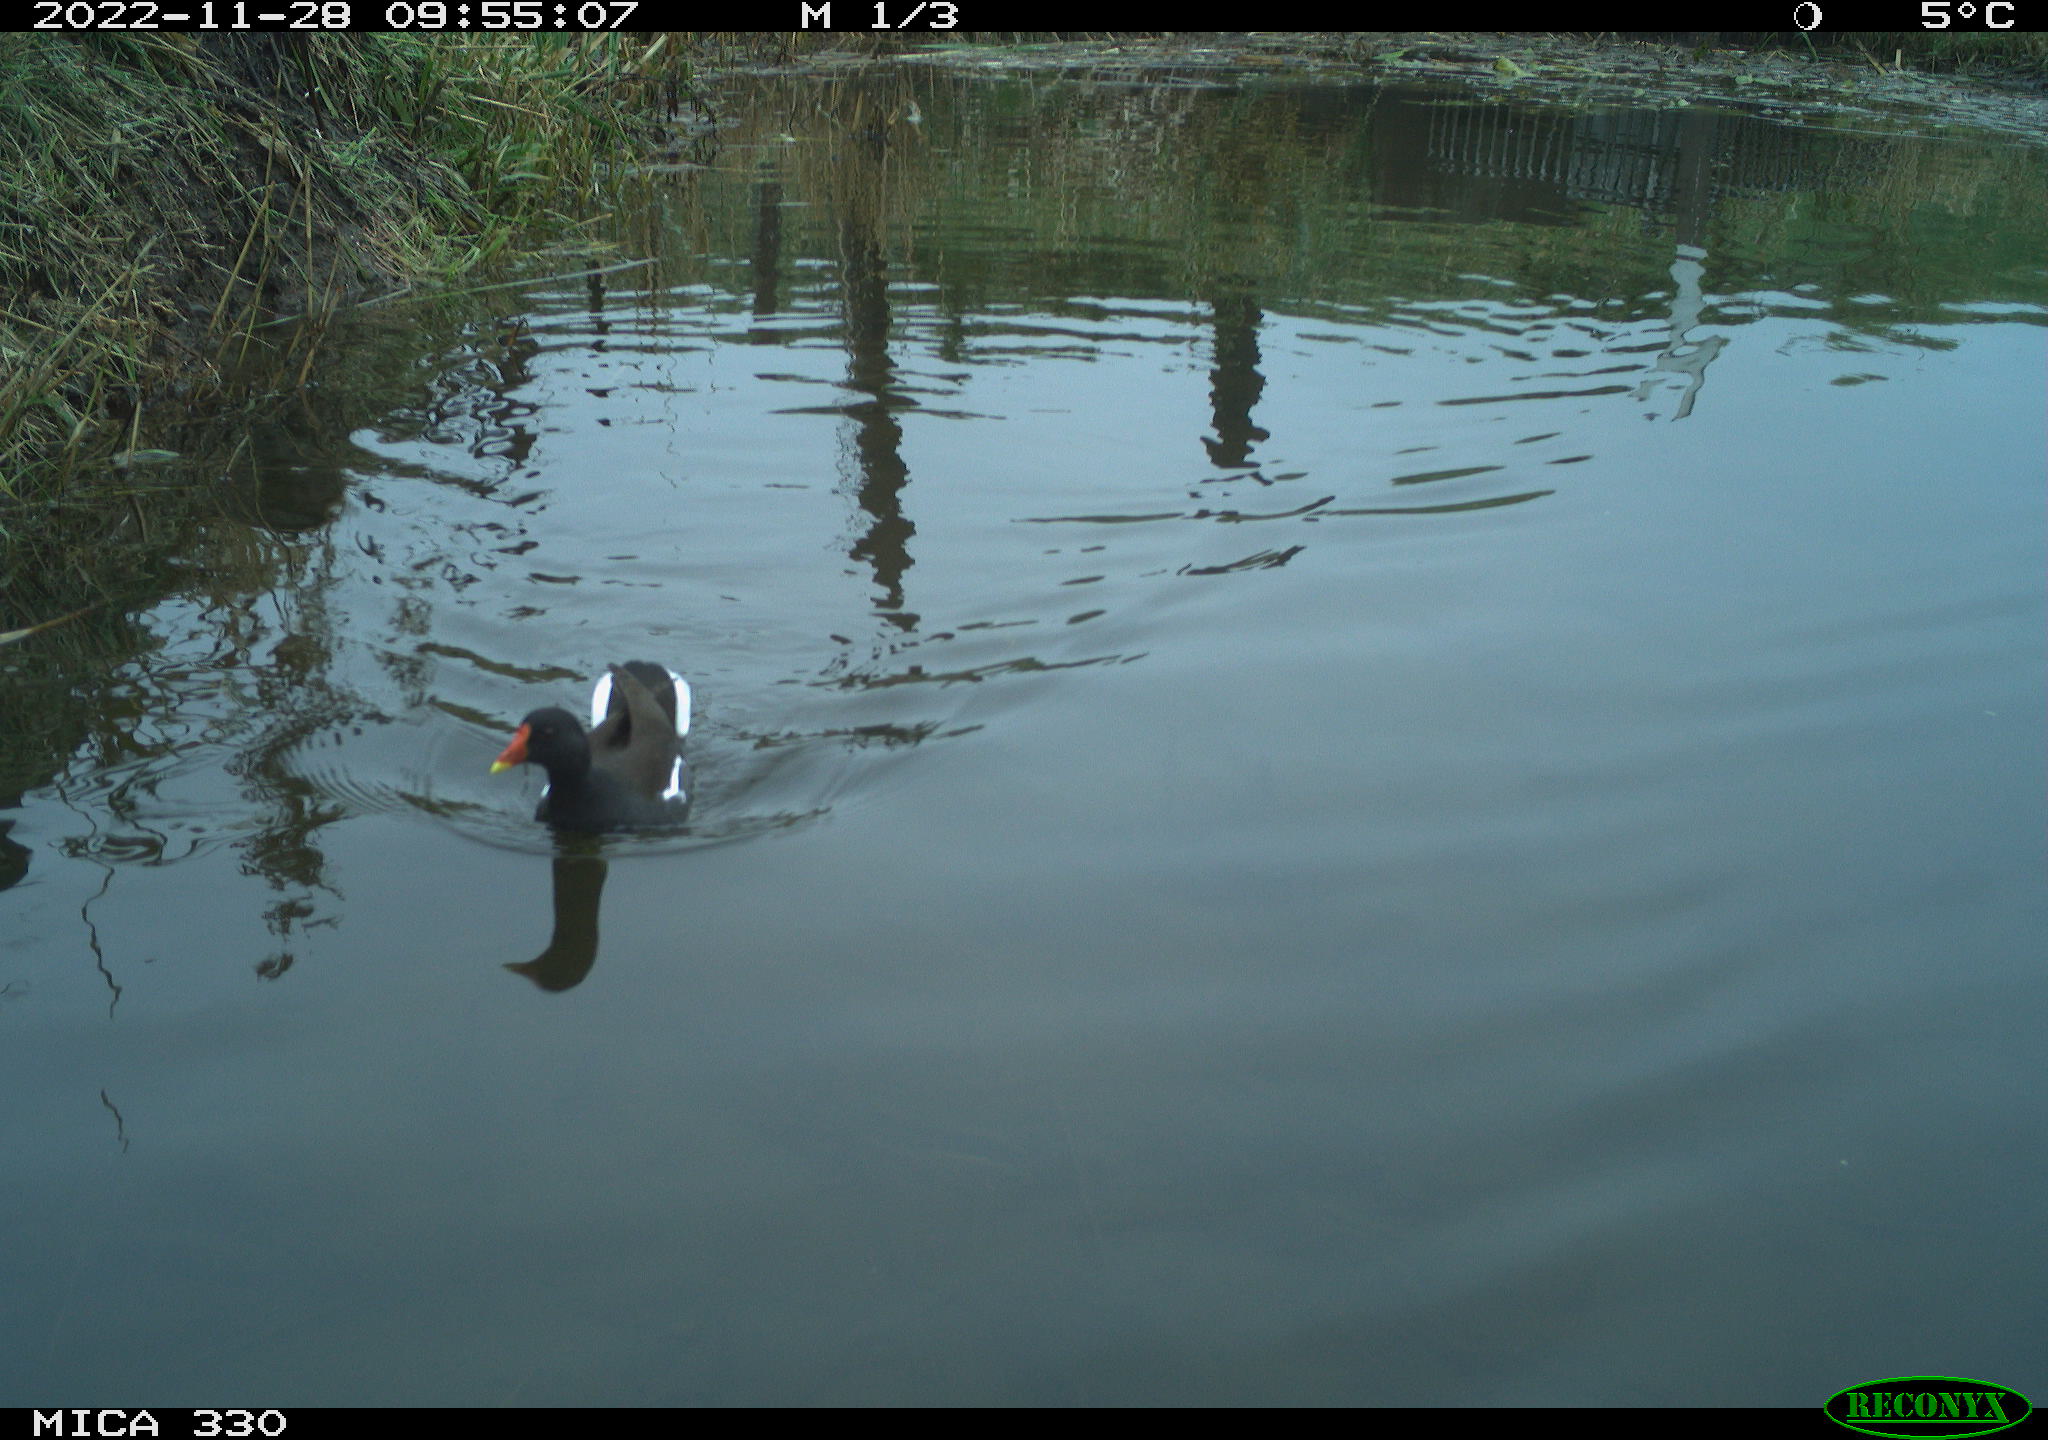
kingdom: Animalia
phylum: Chordata
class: Aves
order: Gruiformes
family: Rallidae
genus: Gallinula
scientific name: Gallinula chloropus
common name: Common moorhen
